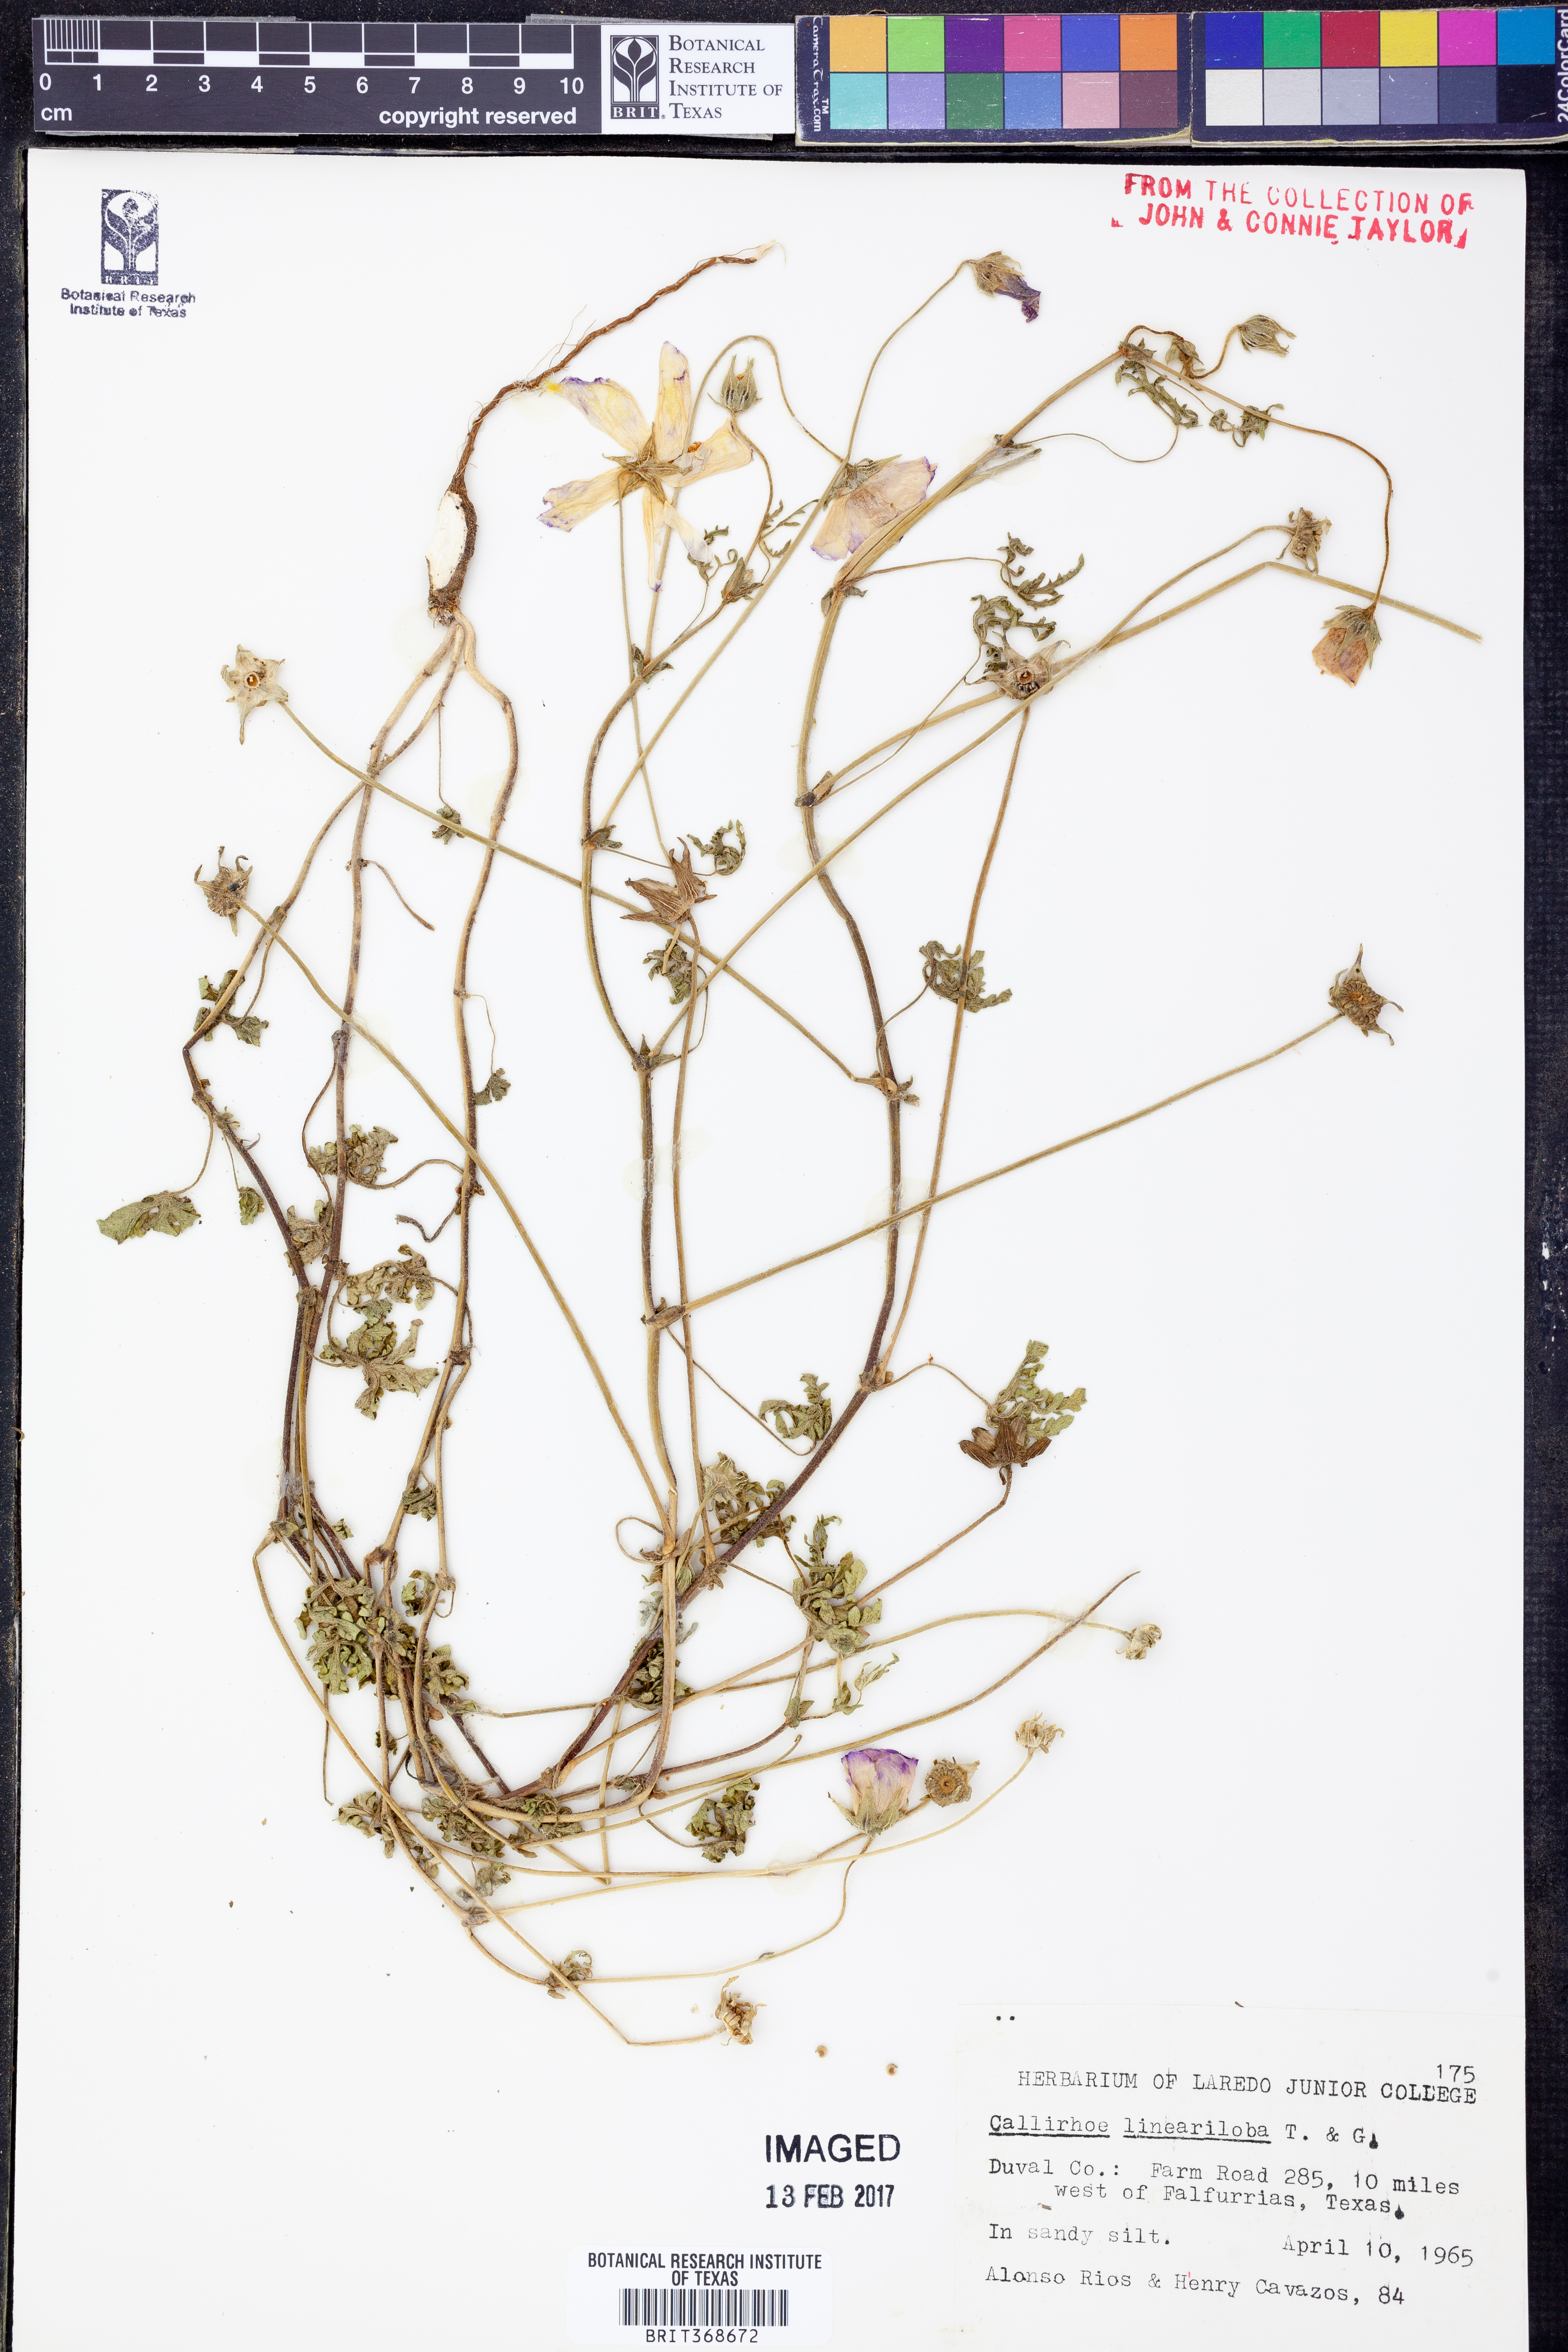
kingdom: Plantae
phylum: Tracheophyta
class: Magnoliopsida
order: Malvales
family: Malvaceae
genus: Callirhoe
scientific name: Callirhoe involucrata
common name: Purple poppy-mallow
